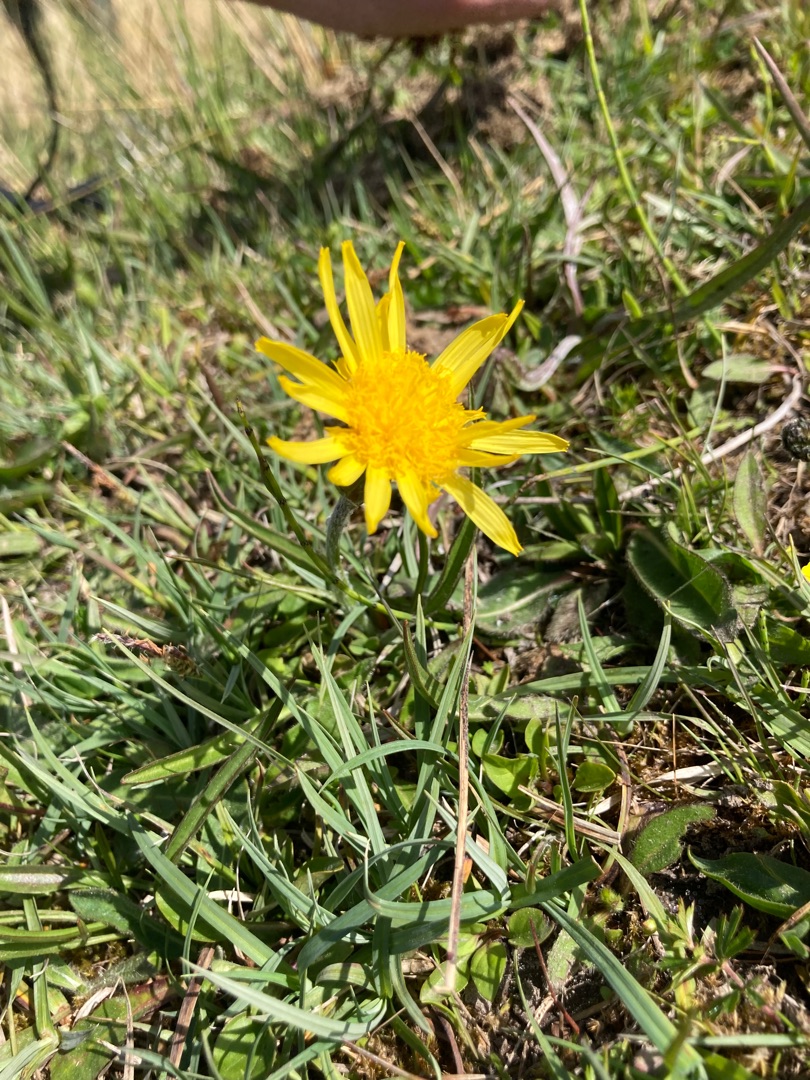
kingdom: Plantae
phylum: Tracheophyta
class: Magnoliopsida
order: Asterales
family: Asteraceae
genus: Scorzonera
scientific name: Scorzonera humilis
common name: Lav skorsoner
